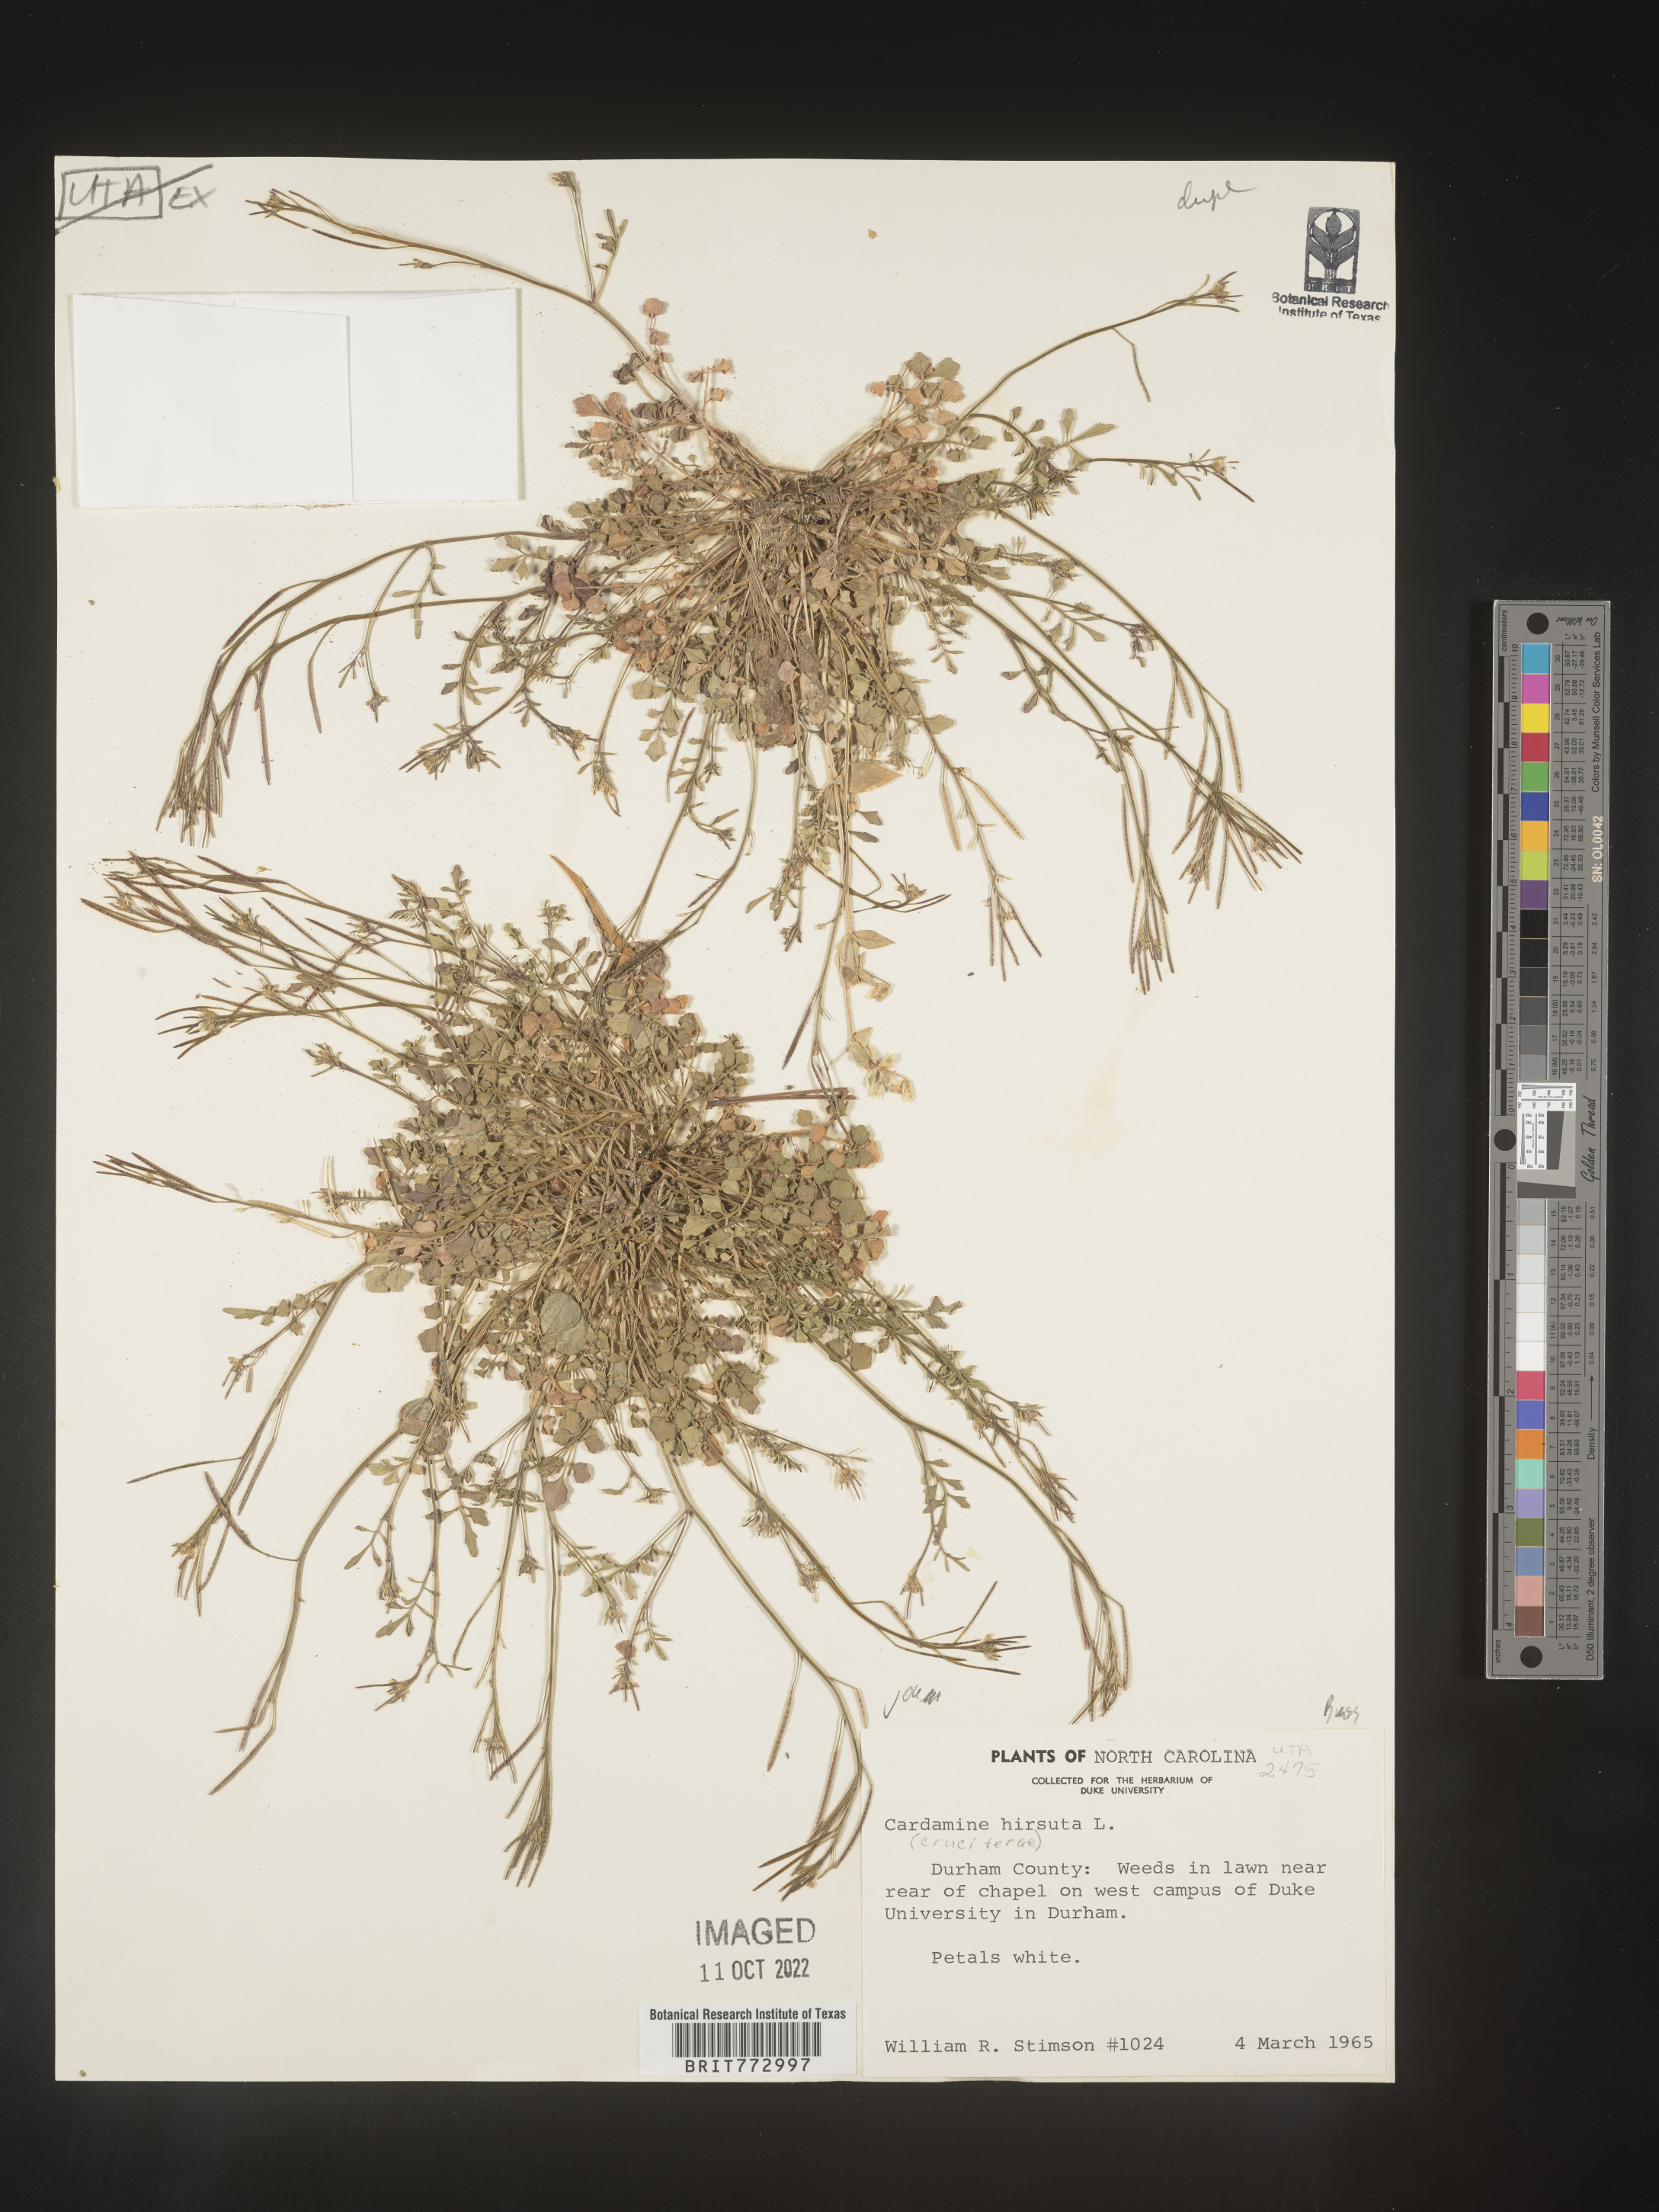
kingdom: Plantae
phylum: Tracheophyta
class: Magnoliopsida
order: Brassicales
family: Brassicaceae
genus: Cardamine
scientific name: Cardamine hirsuta
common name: Hairy bittercress
